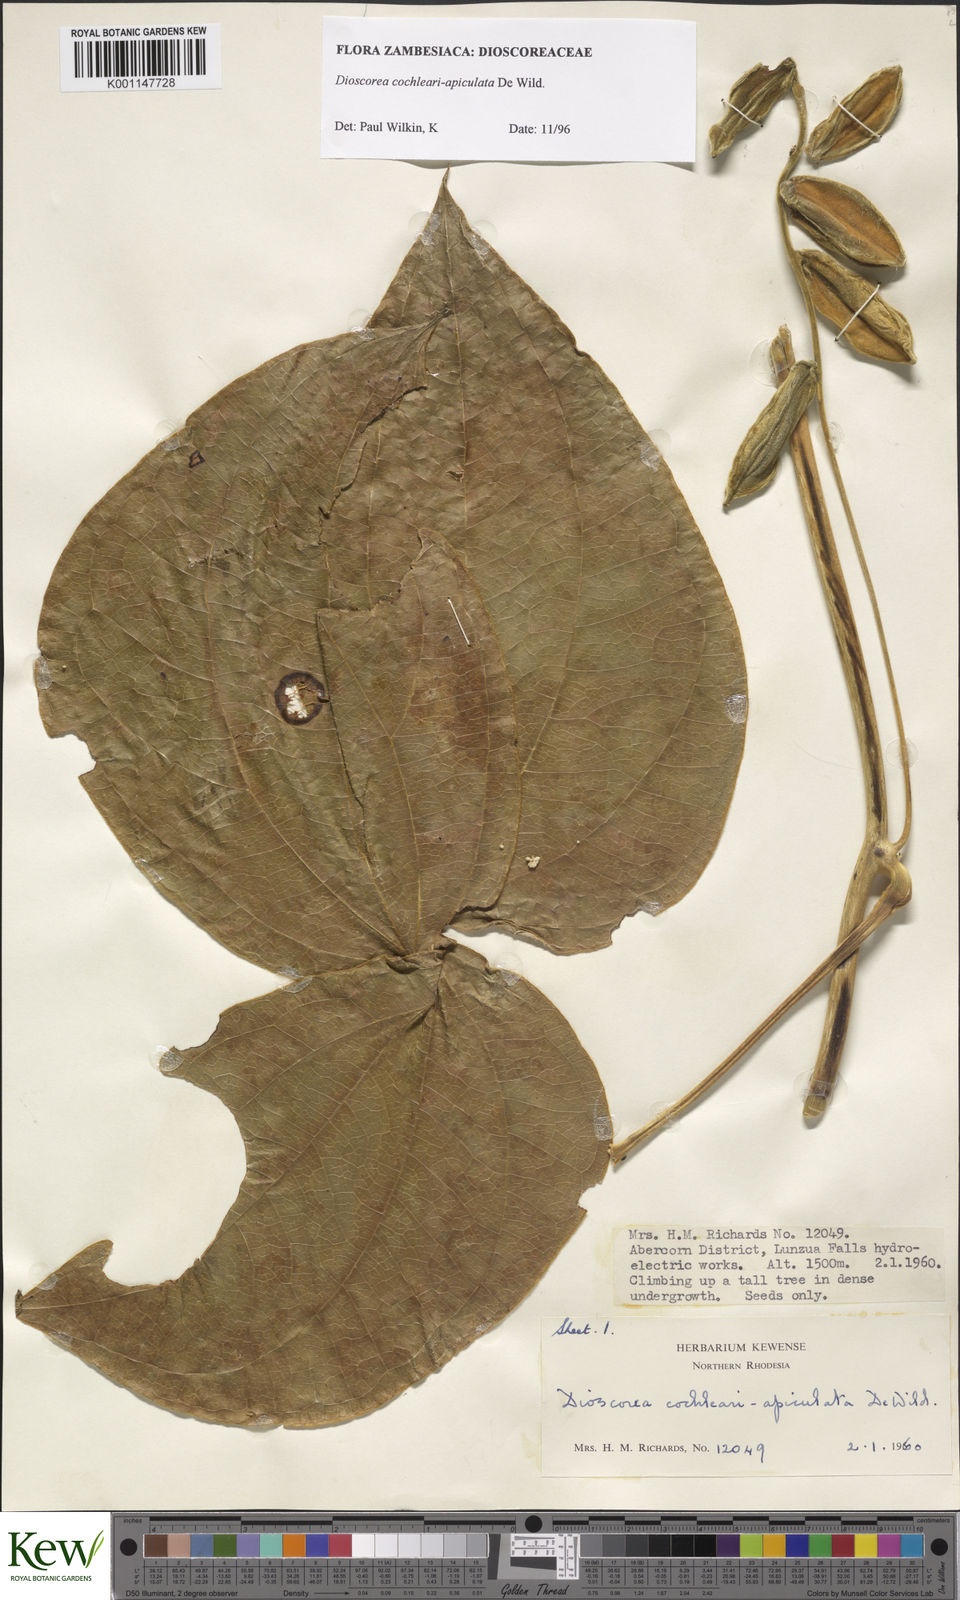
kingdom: Plantae
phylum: Tracheophyta
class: Liliopsida
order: Dioscoreales
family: Dioscoreaceae
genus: Dioscorea
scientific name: Dioscorea cochleariapiculata
